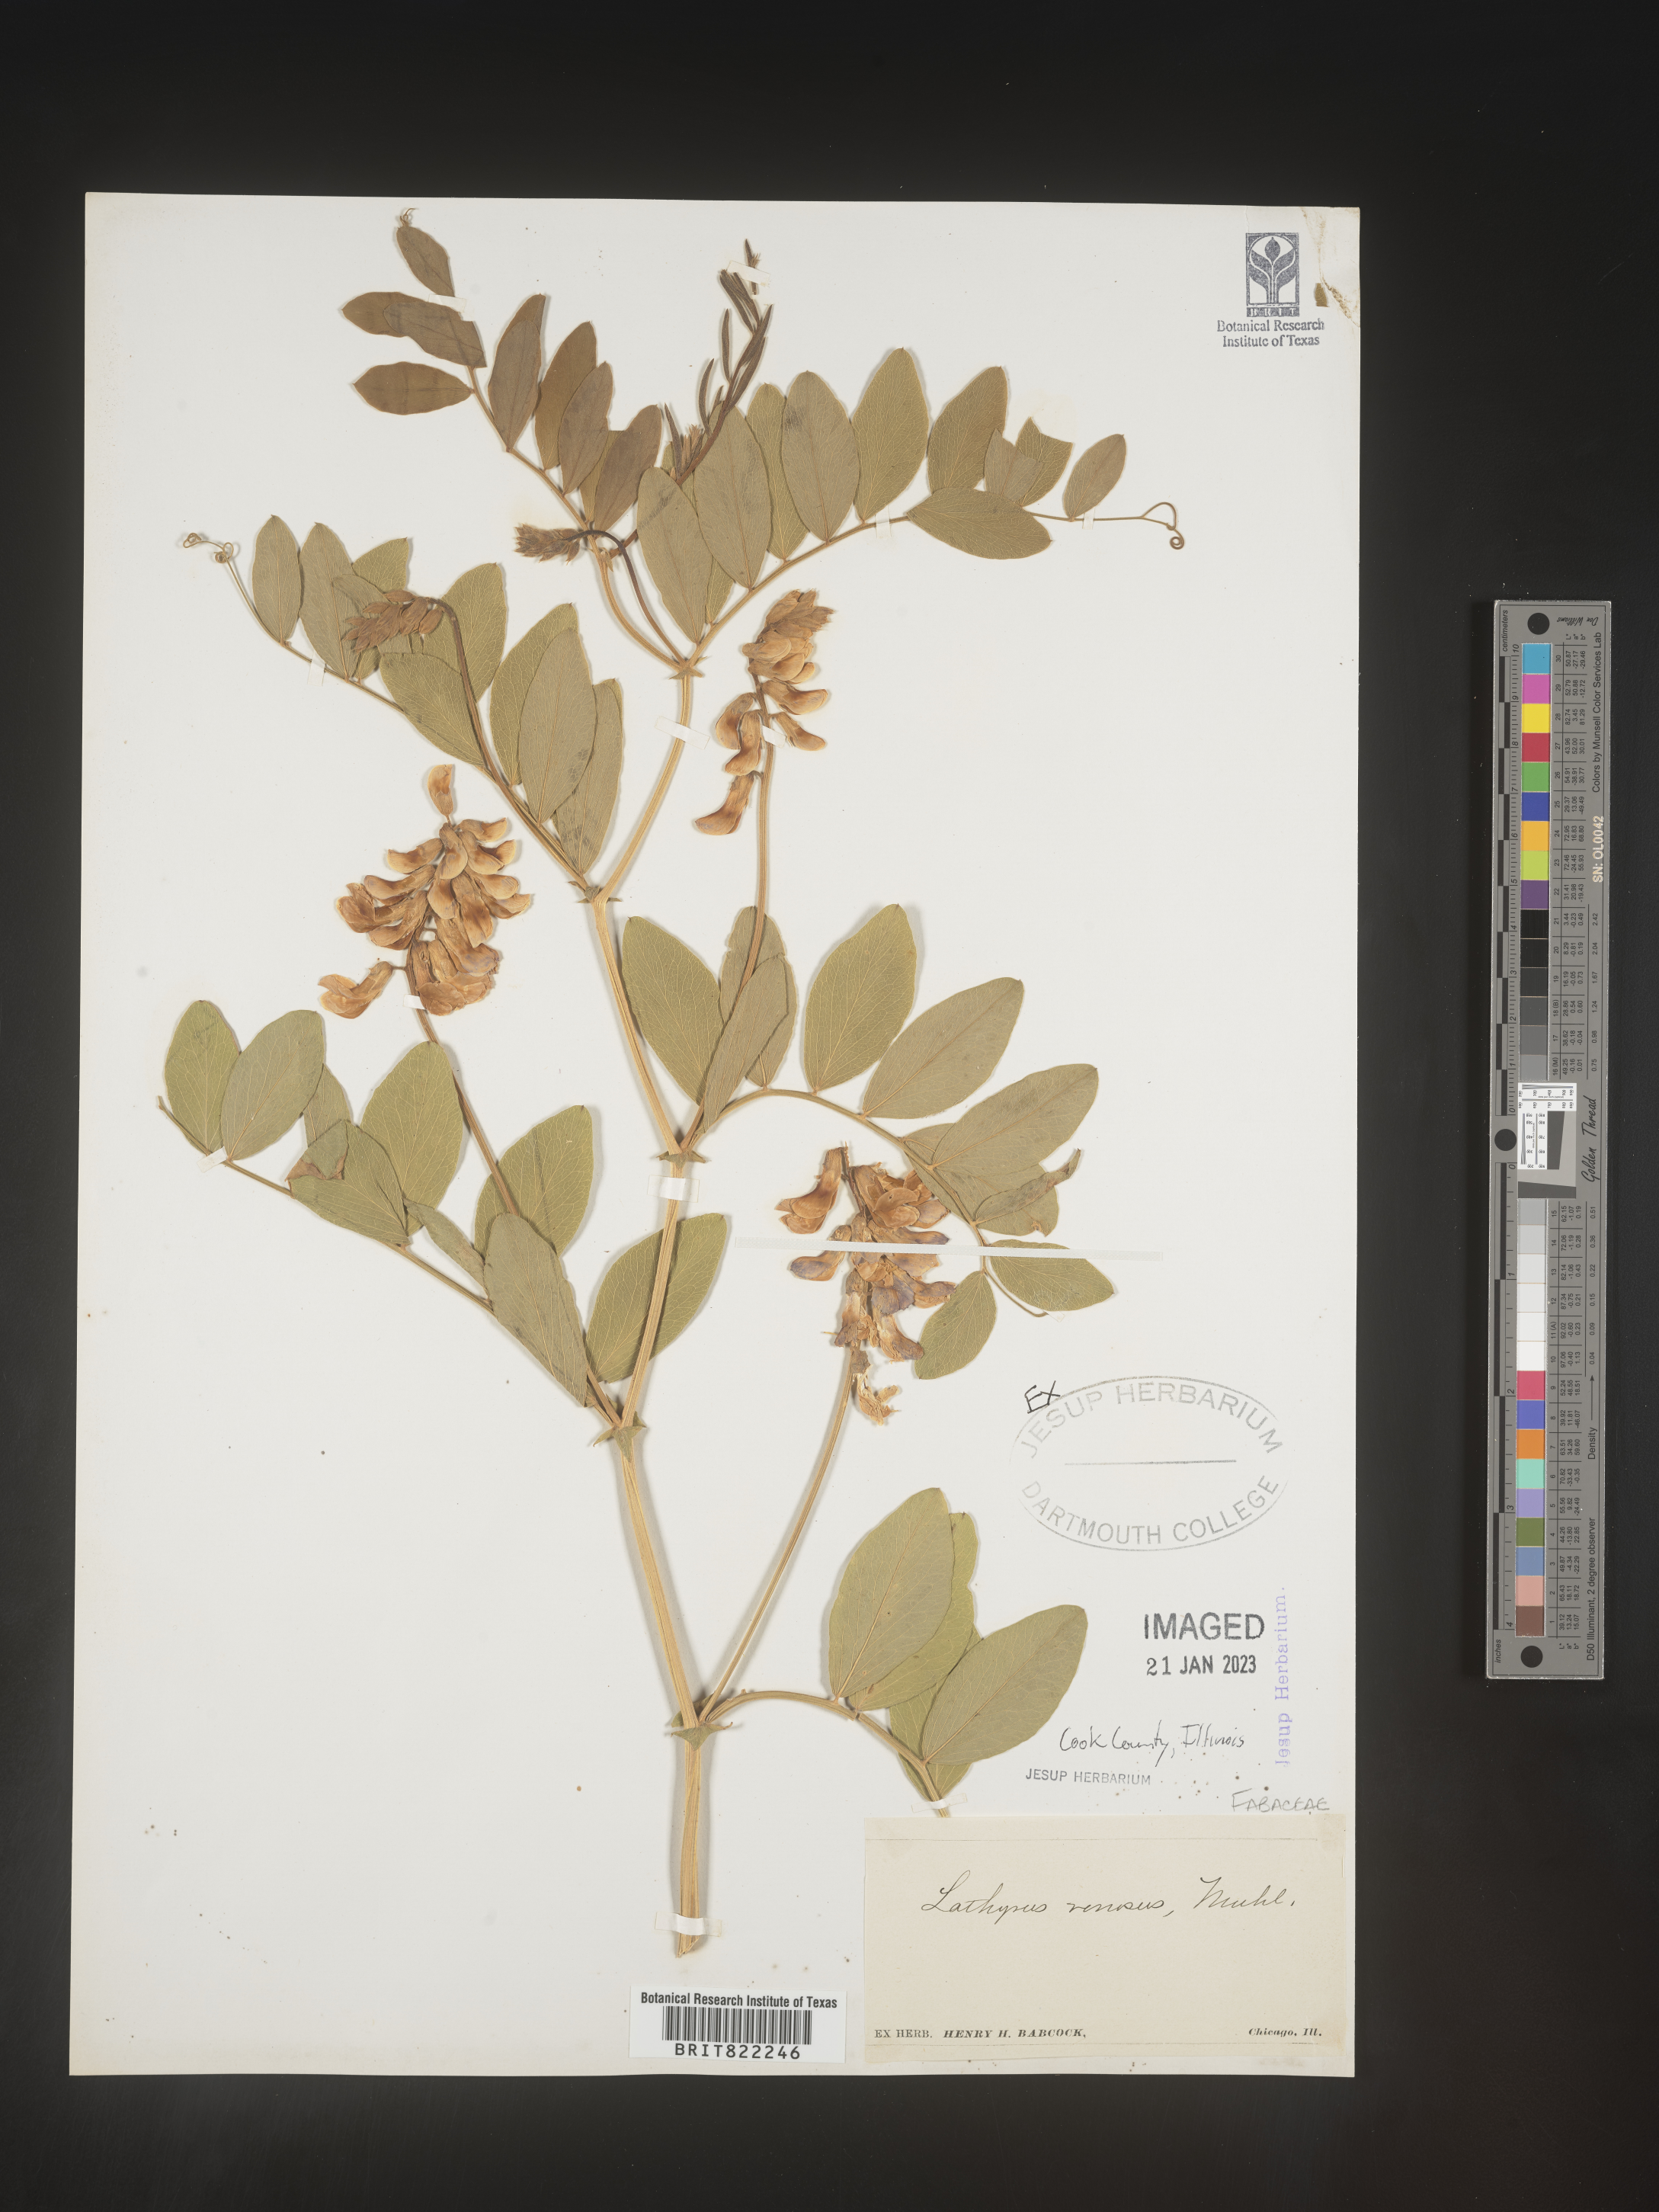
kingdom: Plantae
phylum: Tracheophyta
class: Magnoliopsida
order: Fabales
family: Fabaceae
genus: Lathyrus
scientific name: Lathyrus venosus
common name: Forest-pea
